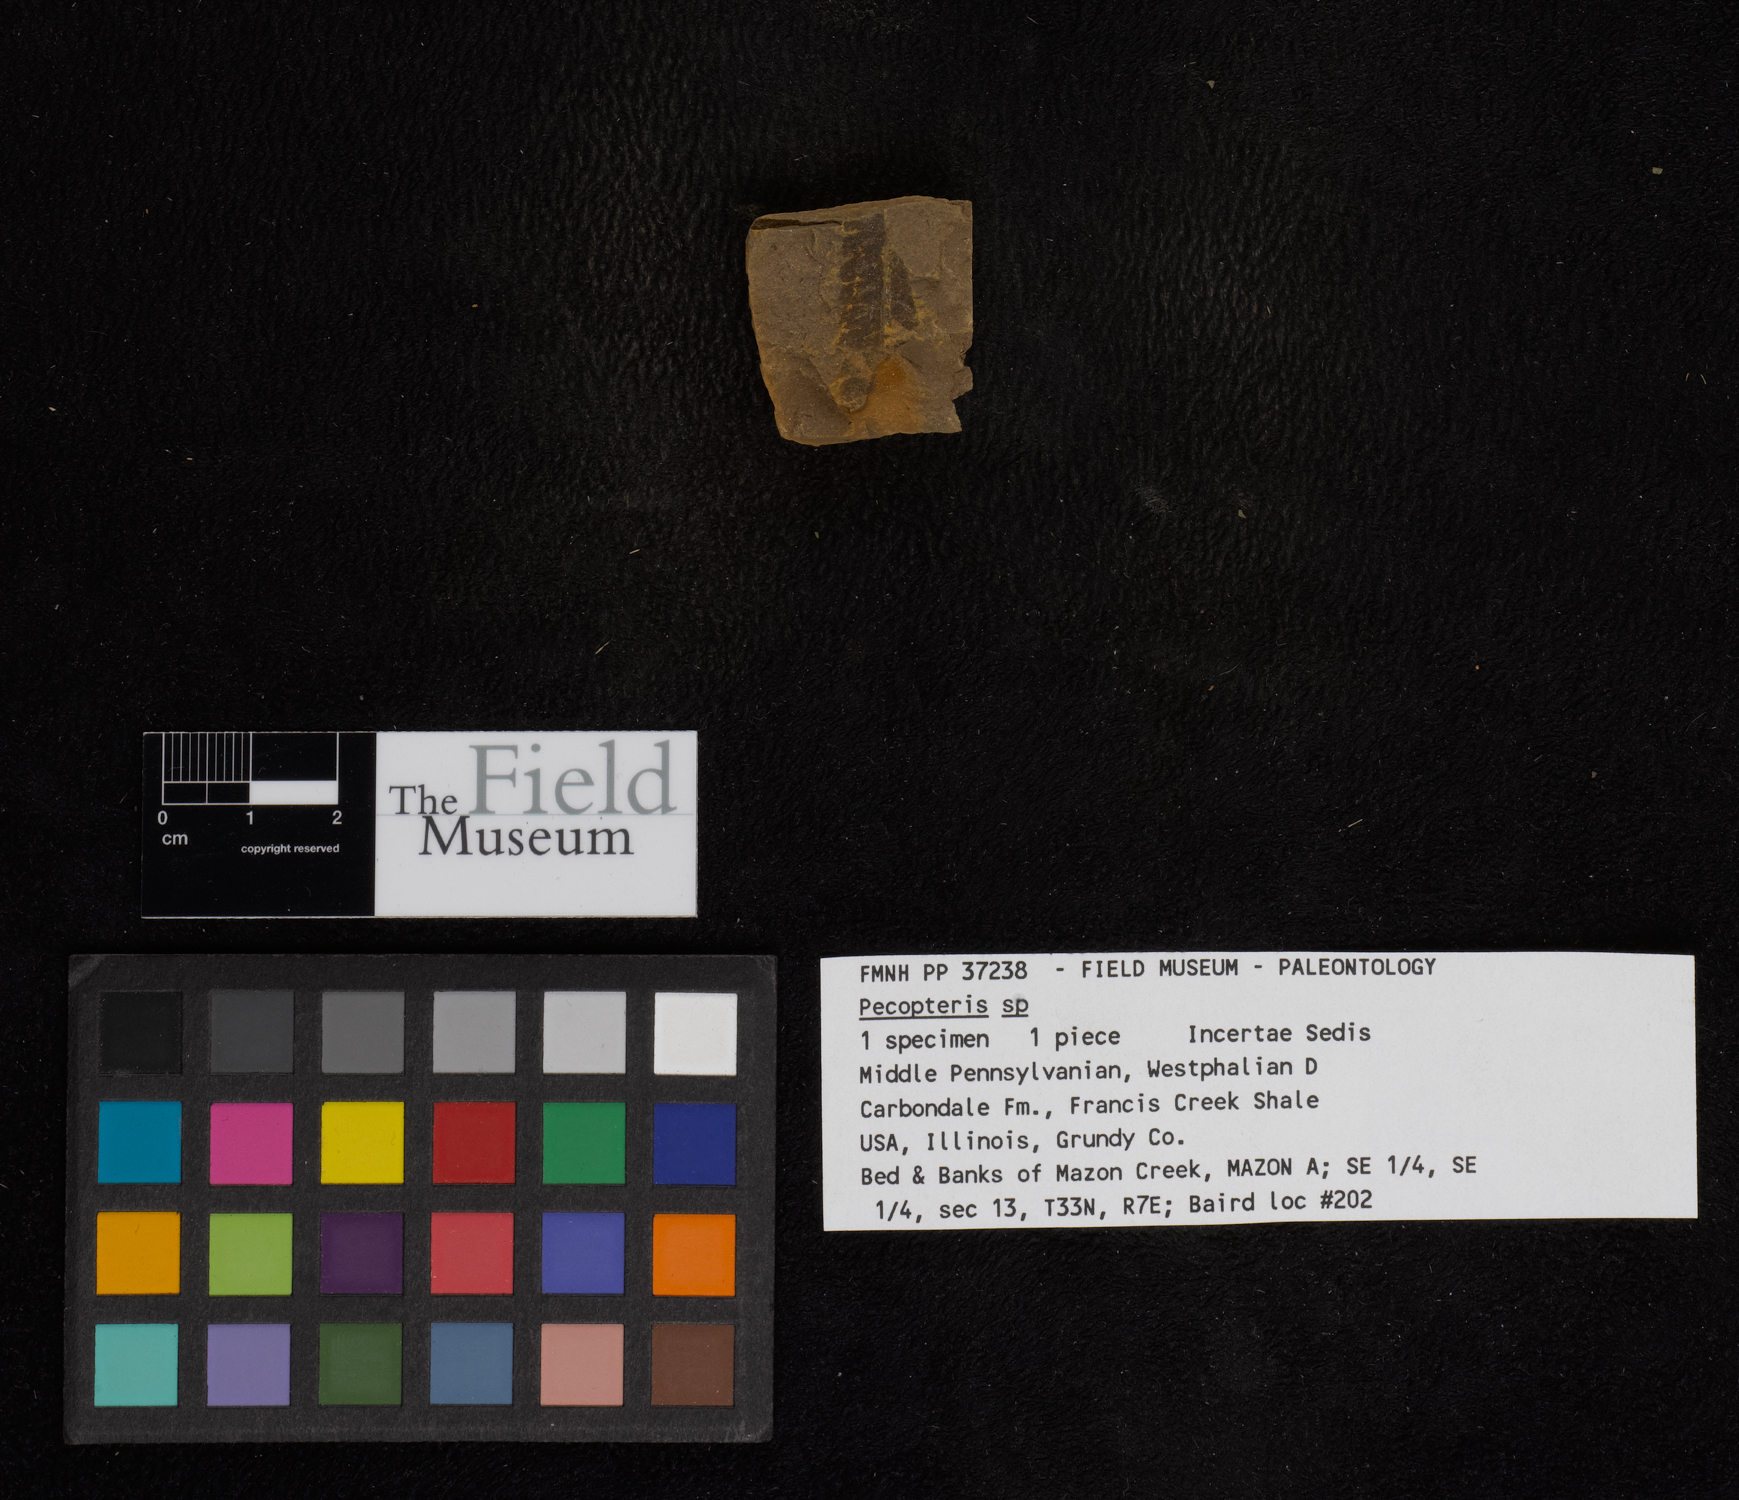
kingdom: Plantae
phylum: Tracheophyta
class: Polypodiopsida
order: Marattiales
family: Asterothecaceae
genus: Pecopteris
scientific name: Pecopteris
